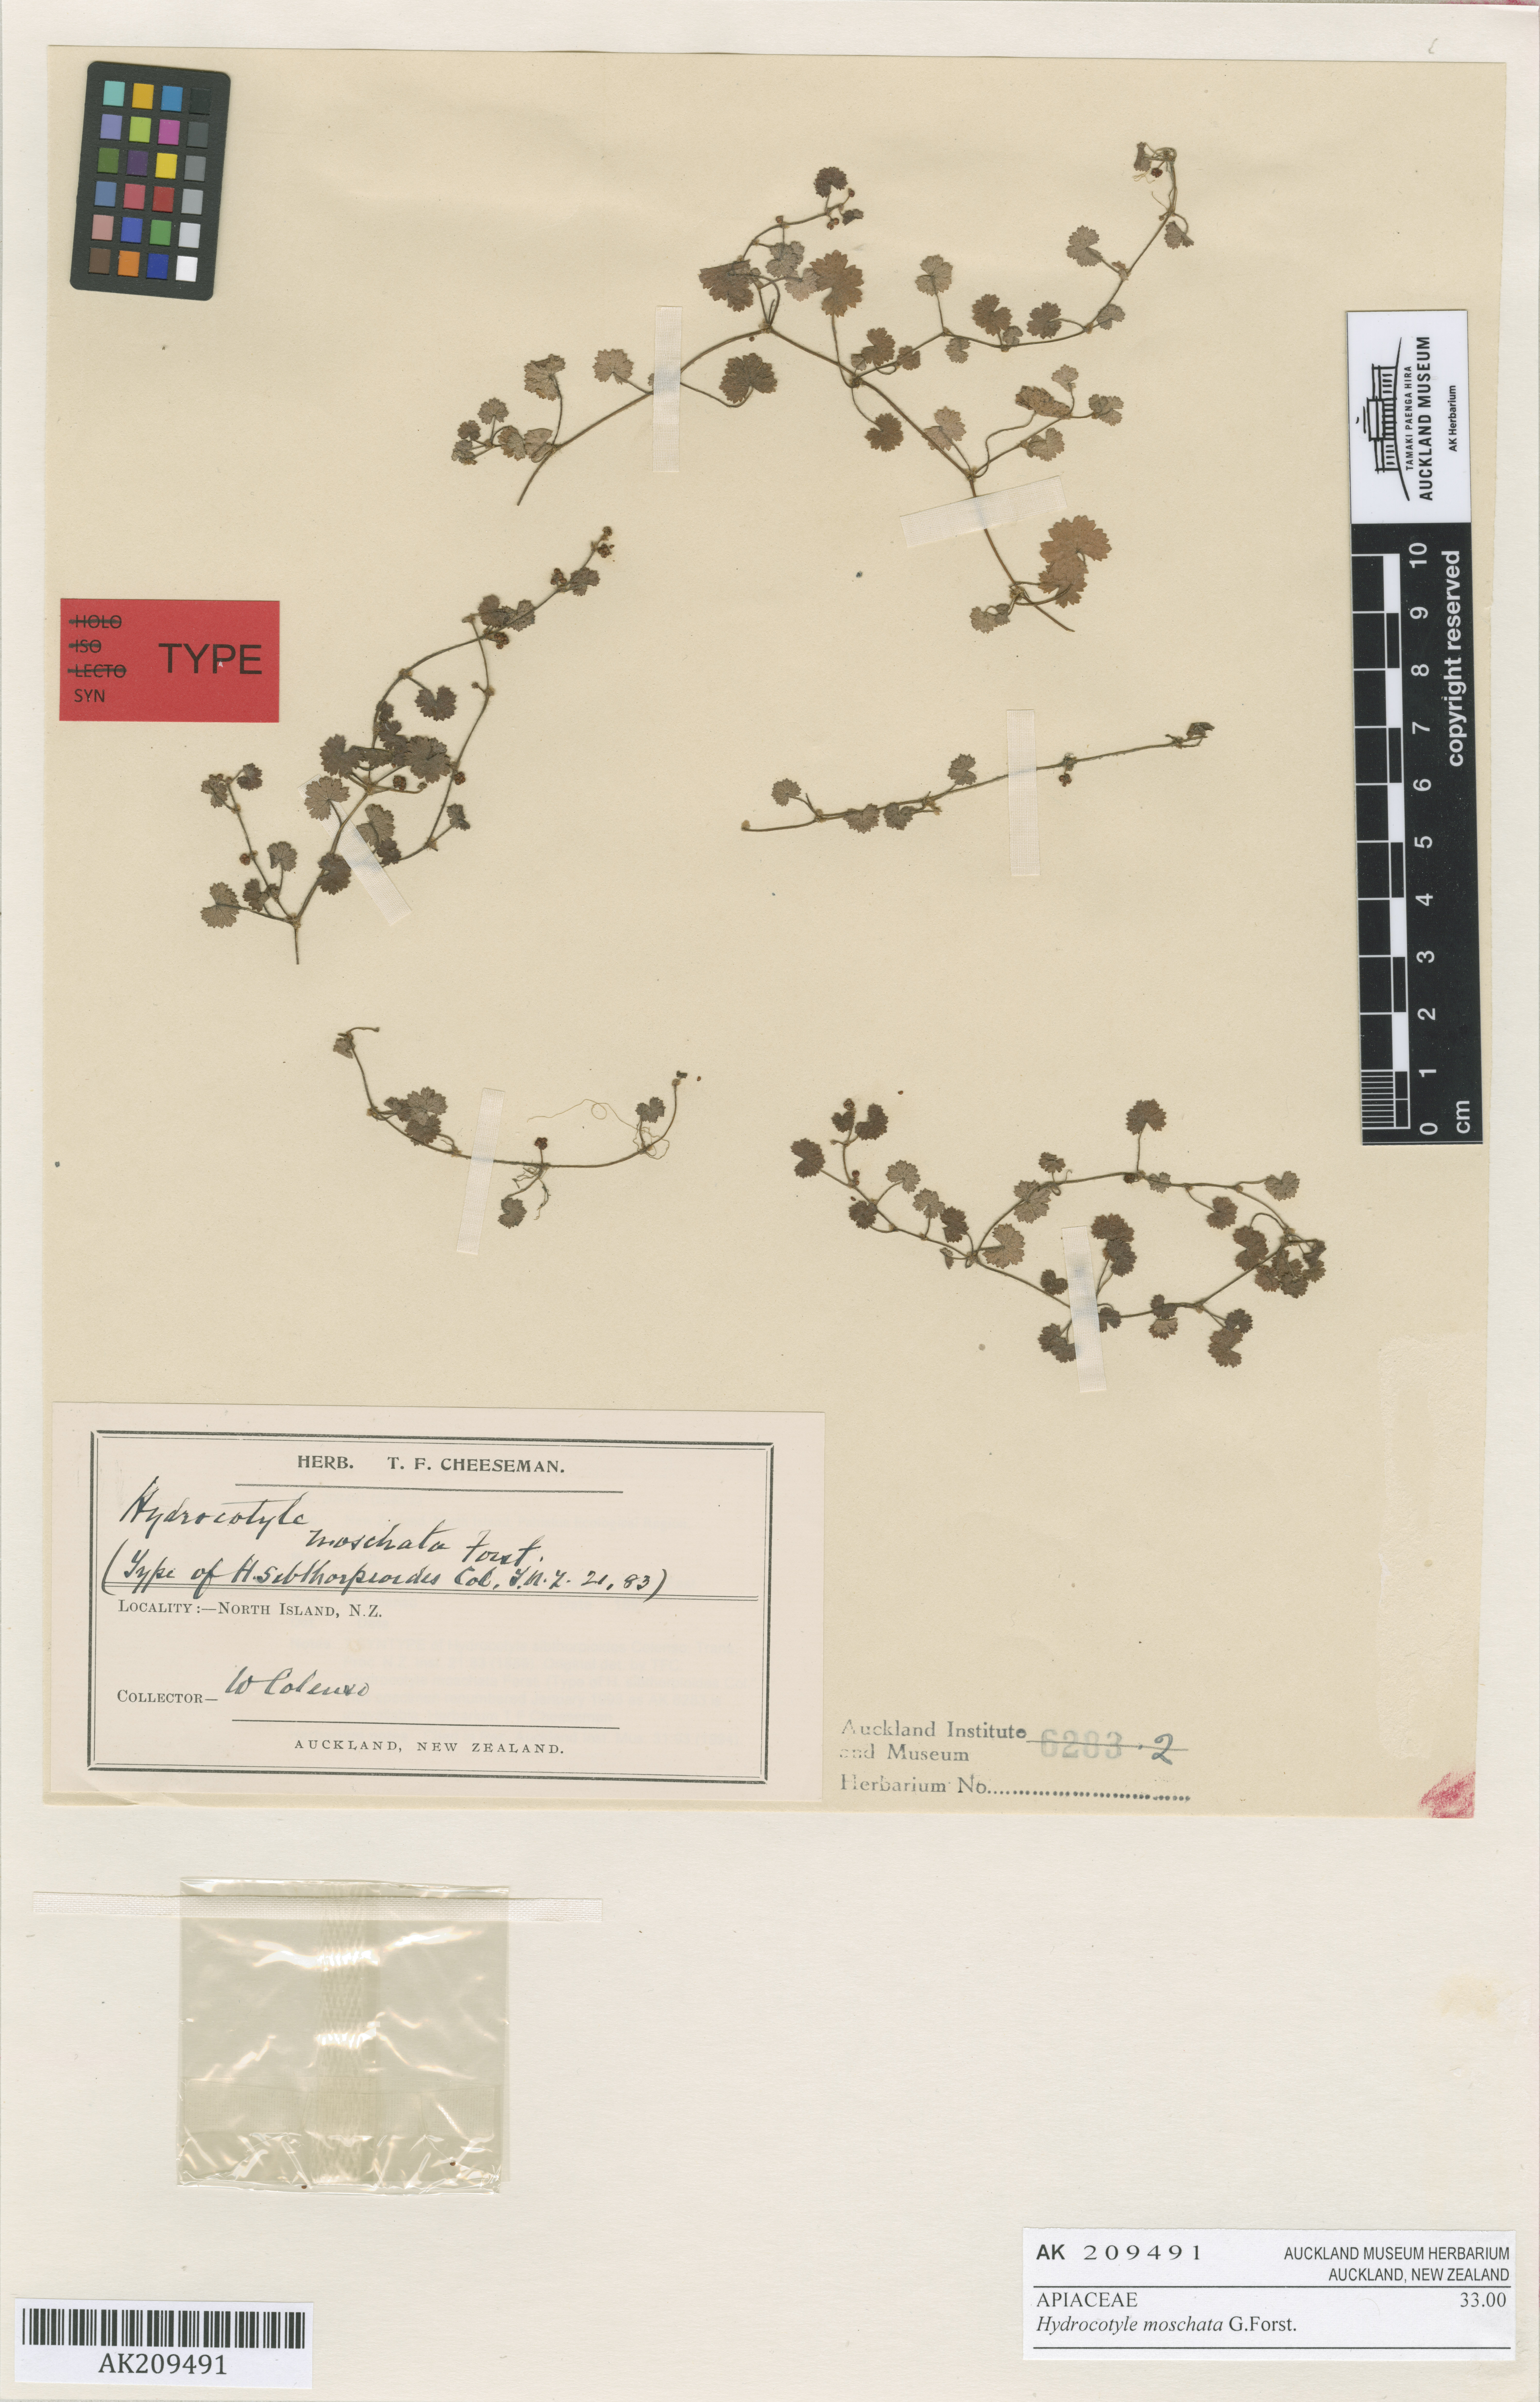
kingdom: Plantae
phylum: Tracheophyta
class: Magnoliopsida
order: Apiales
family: Araliaceae
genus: Hydrocotyle
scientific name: Hydrocotyle moschata
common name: Hairy pennywort
